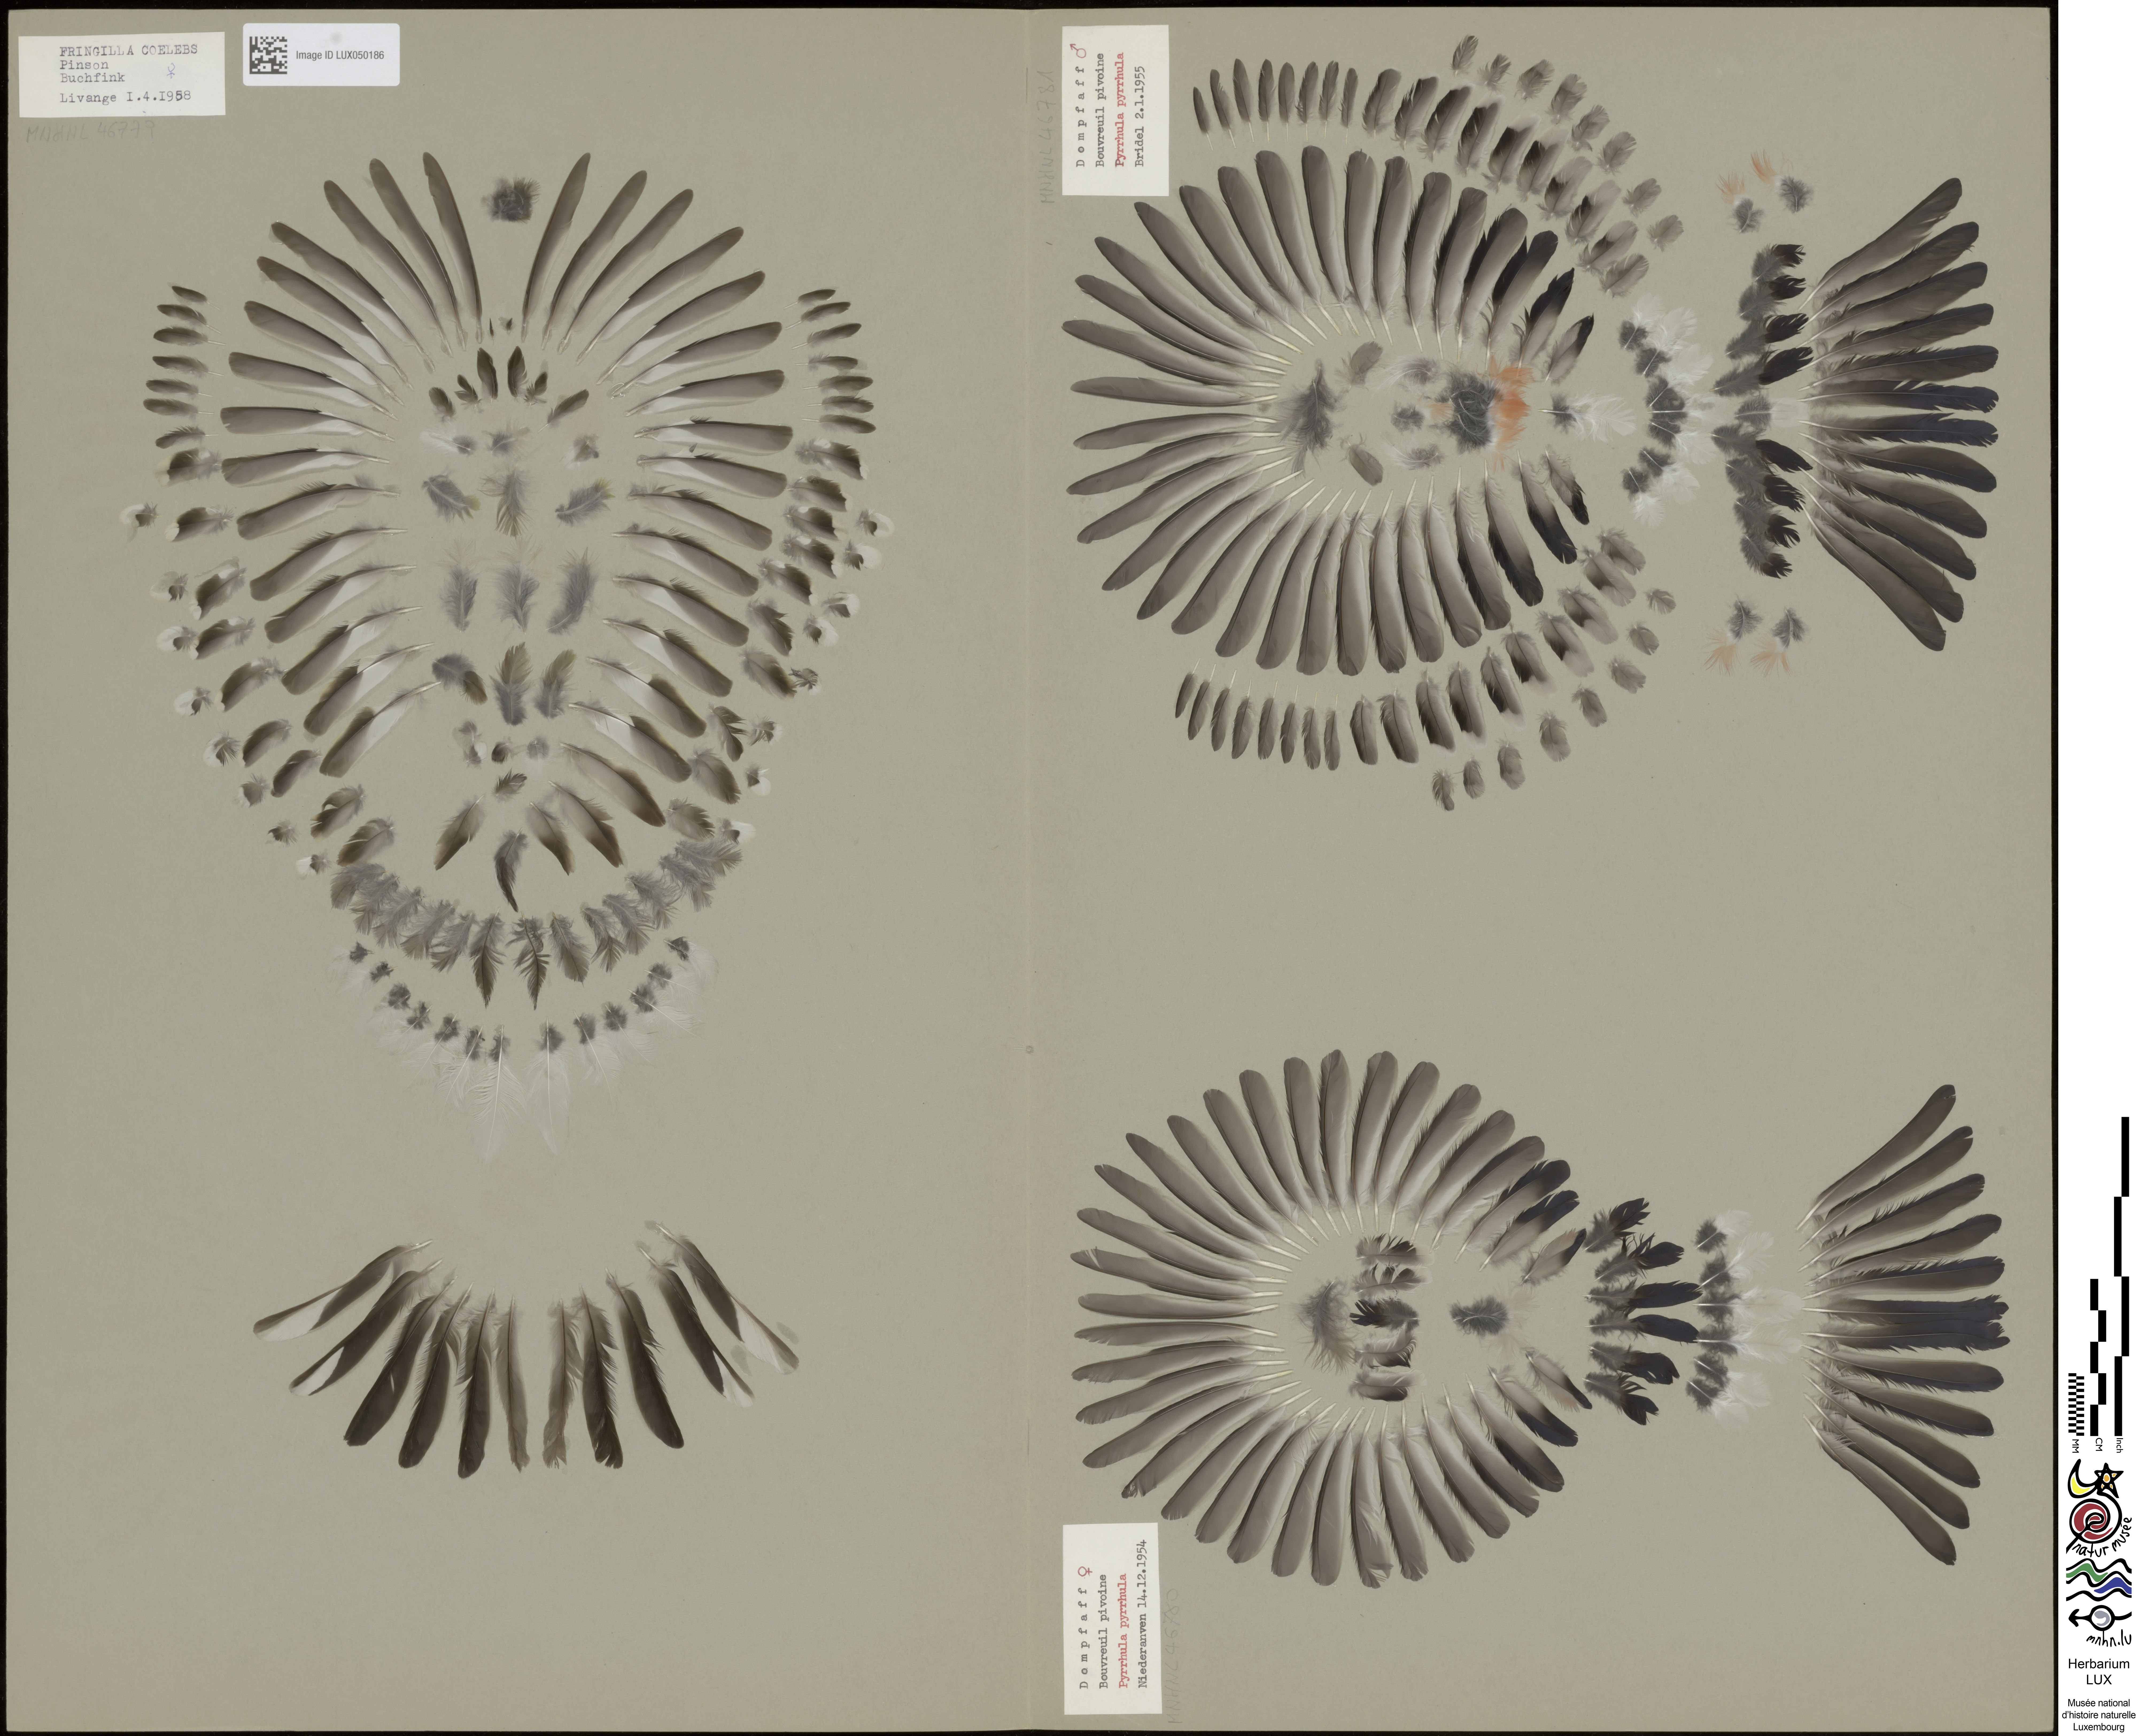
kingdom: Animalia
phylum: Chordata
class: Aves
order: Passeriformes
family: Fringillidae
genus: Pyrrhula
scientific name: Pyrrhula pyrrhula
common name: Eurasian bullfinch
